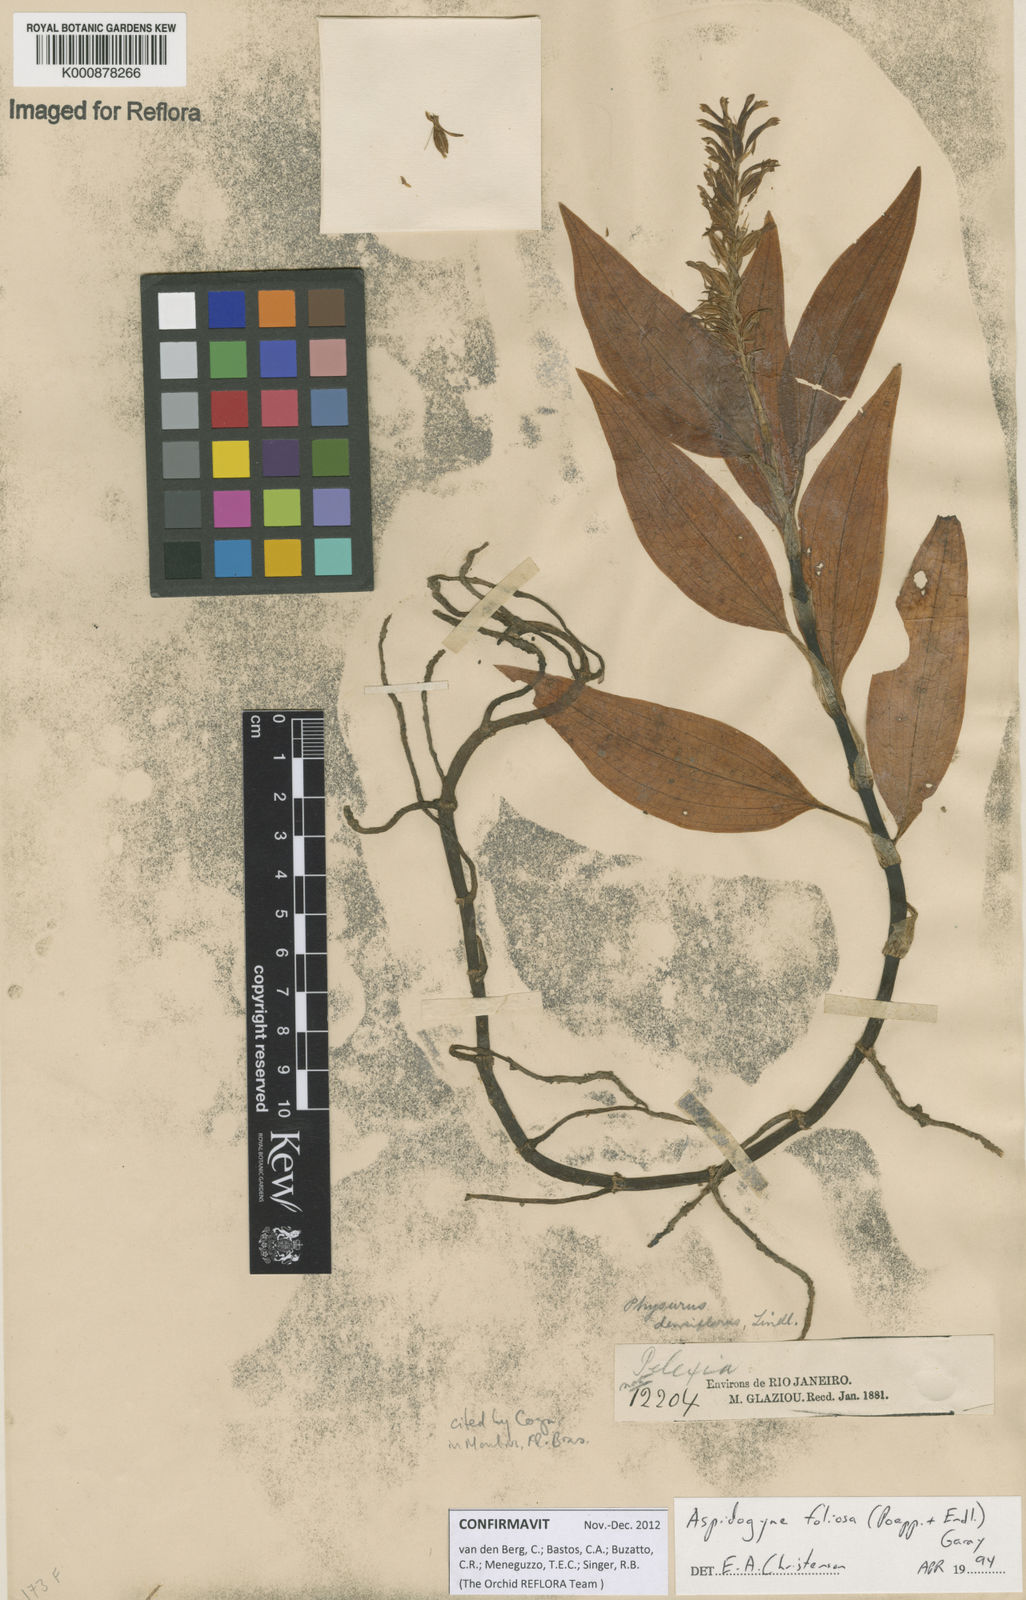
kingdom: Plantae
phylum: Tracheophyta
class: Liliopsida
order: Asparagales
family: Orchidaceae
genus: Aspidogyne
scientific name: Aspidogyne foliosa
